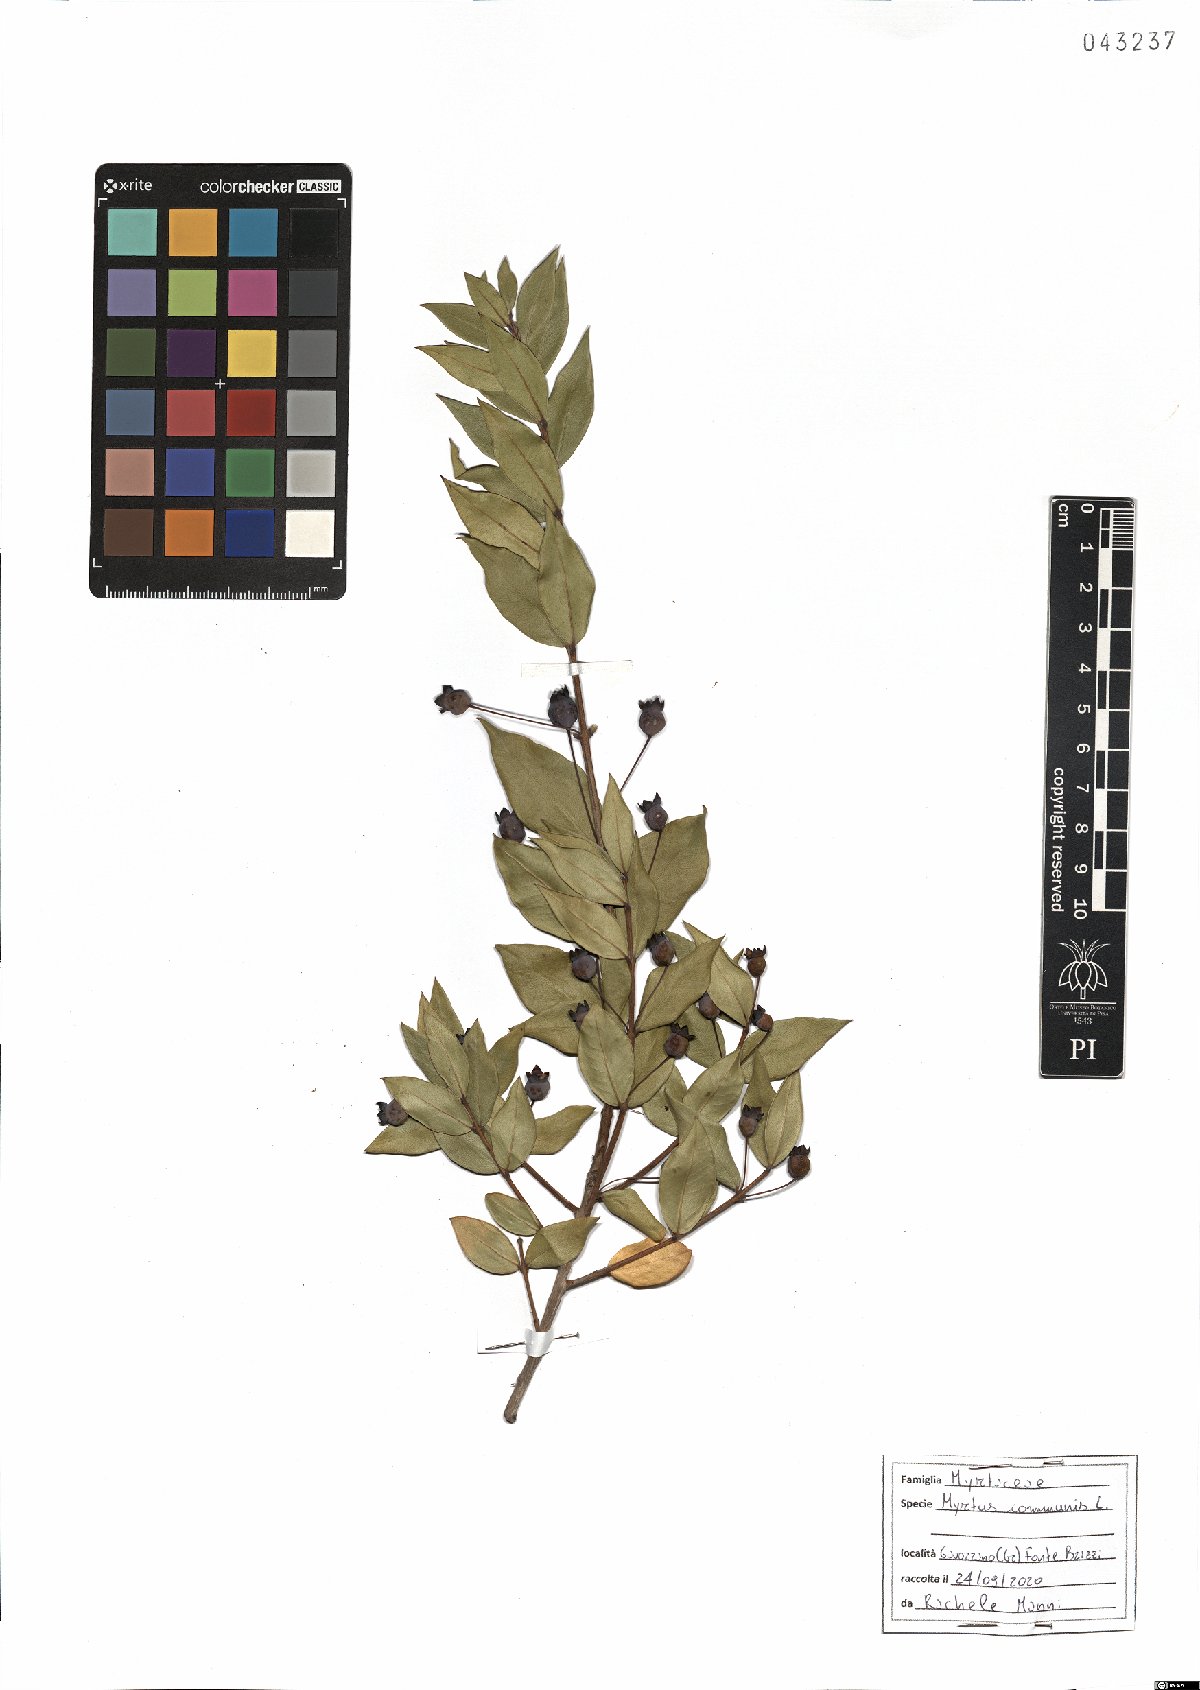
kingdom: Plantae
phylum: Tracheophyta
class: Magnoliopsida
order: Myrtales
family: Myrtaceae
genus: Myrtus
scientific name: Myrtus communis
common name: Myrtle
